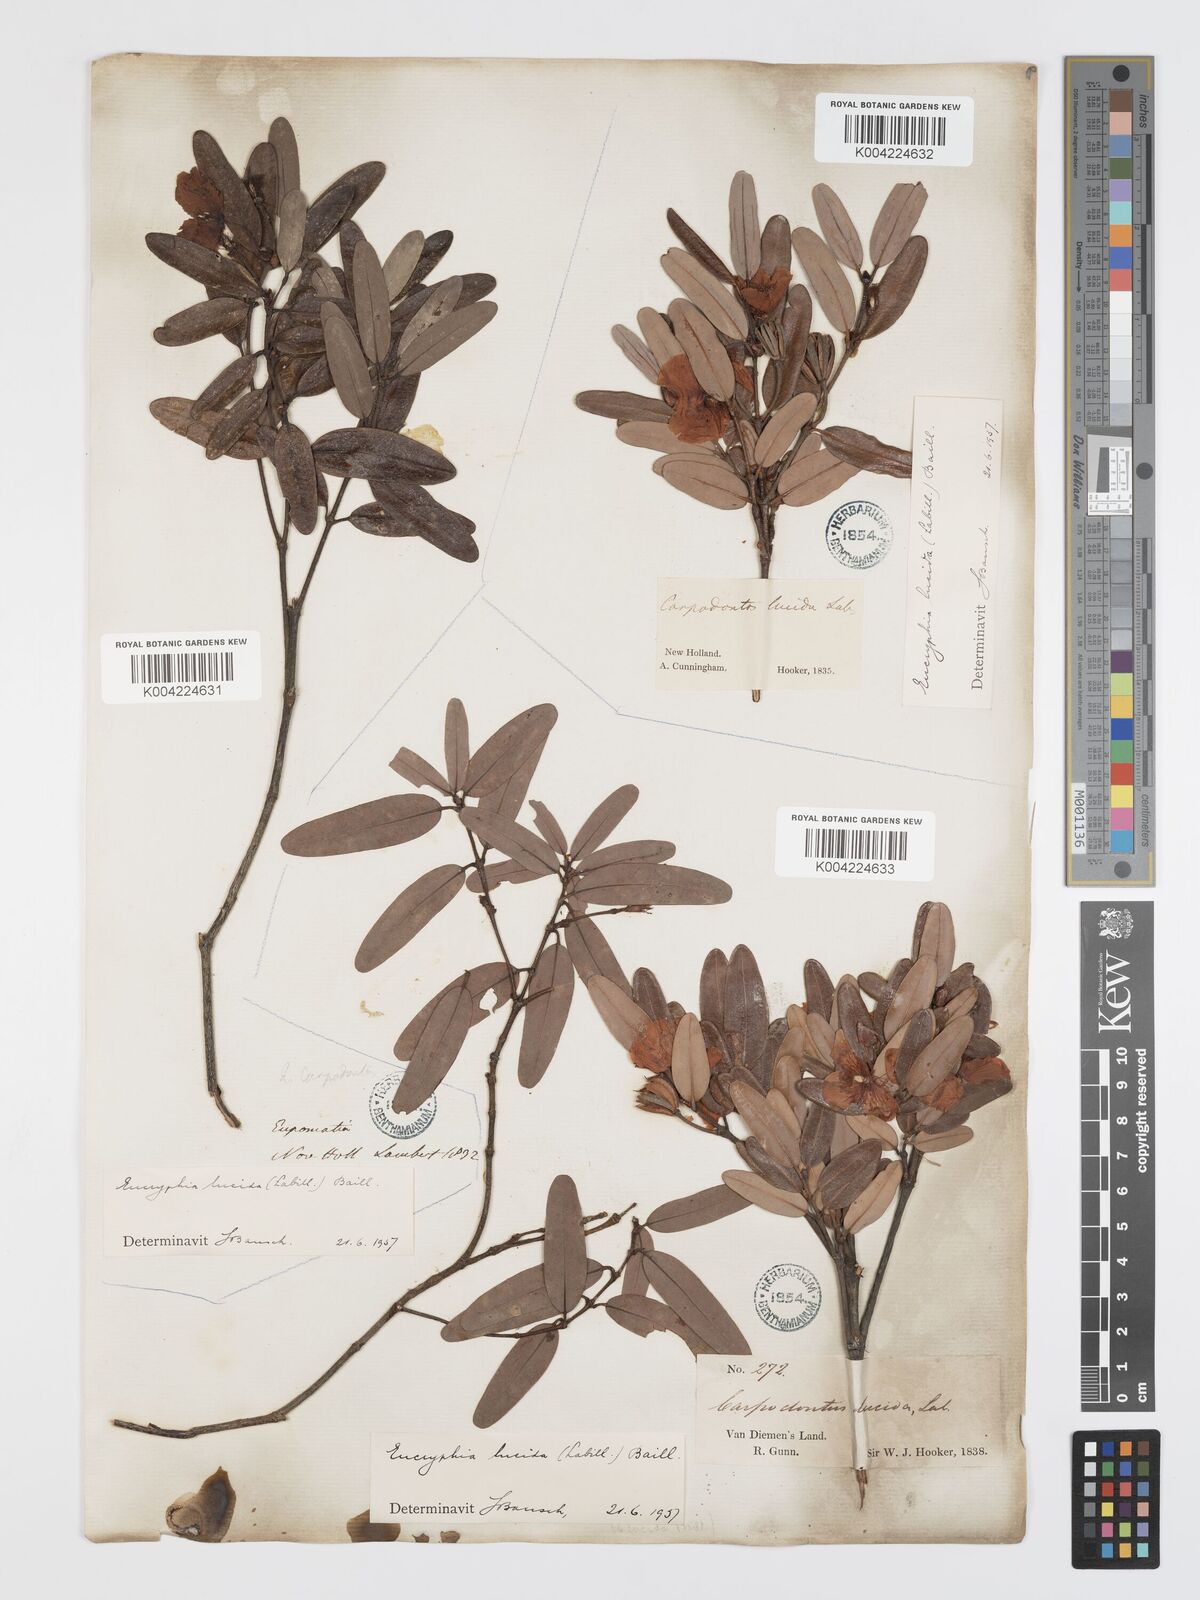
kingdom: Plantae
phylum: Tracheophyta
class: Magnoliopsida
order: Oxalidales
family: Cunoniaceae
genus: Eucryphia
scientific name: Eucryphia lucida
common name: Leatherwood
